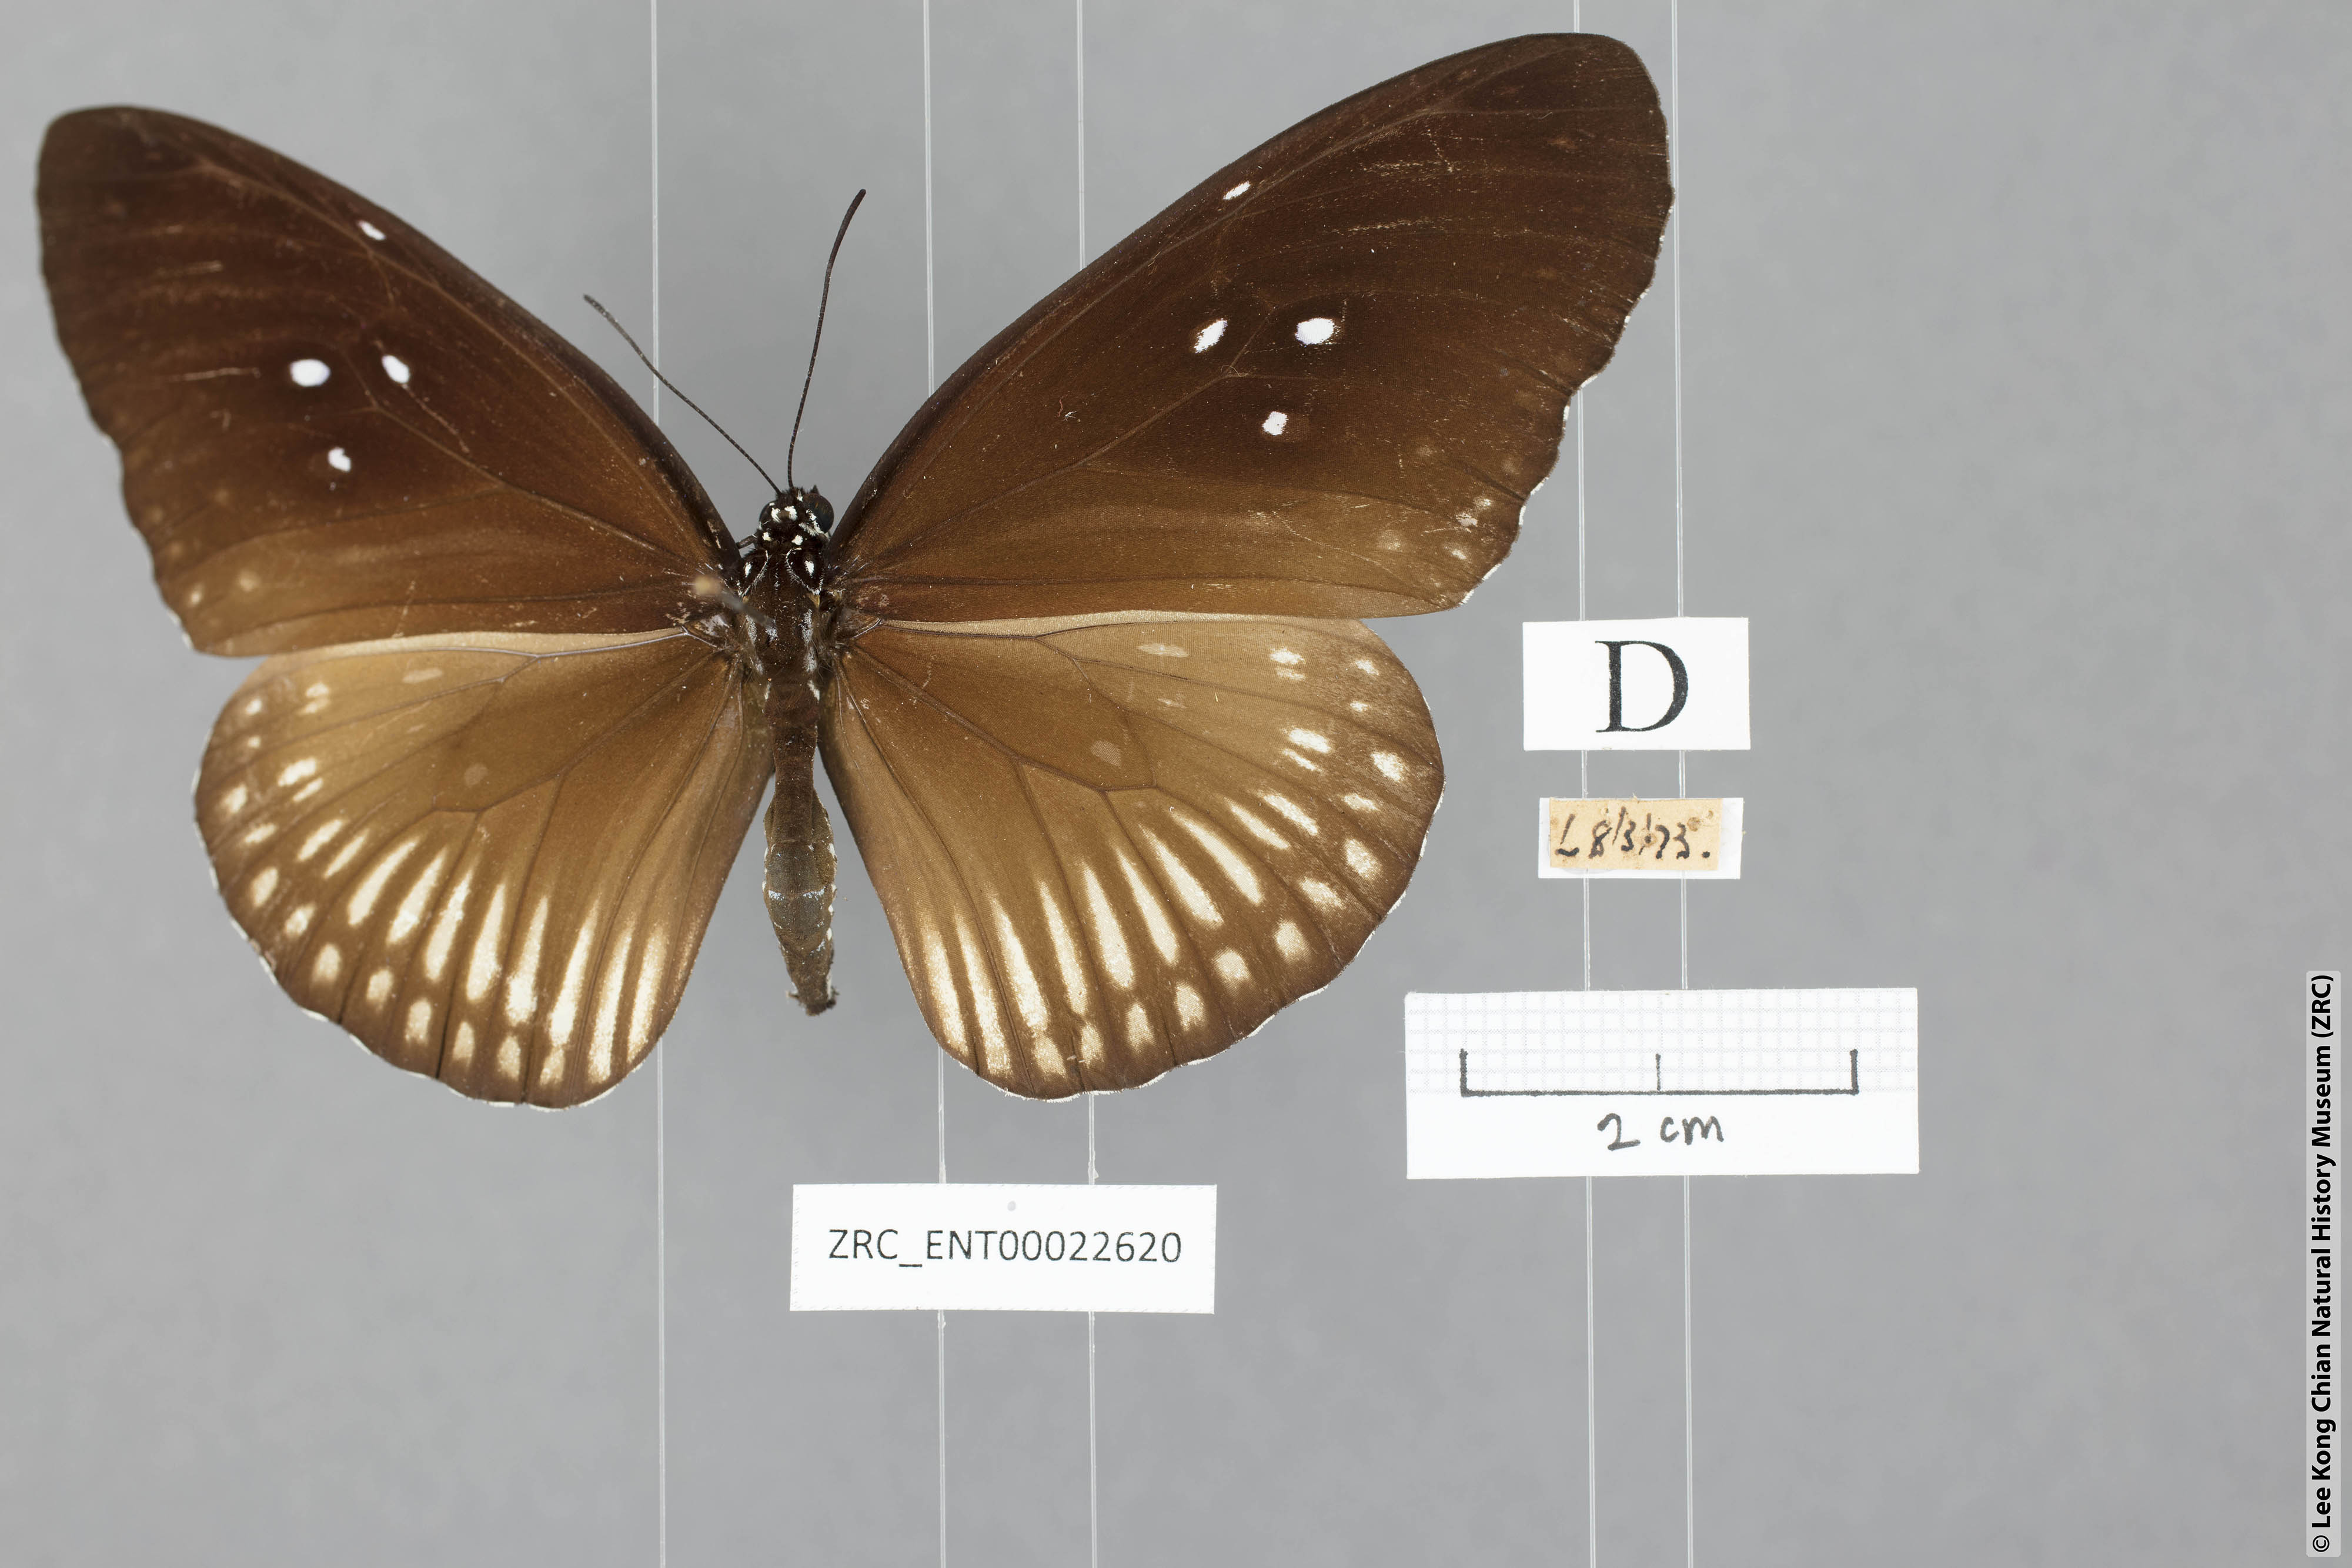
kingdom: Animalia
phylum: Arthropoda
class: Insecta
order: Lepidoptera
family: Nymphalidae
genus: Euploea
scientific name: Euploea doubledayi
